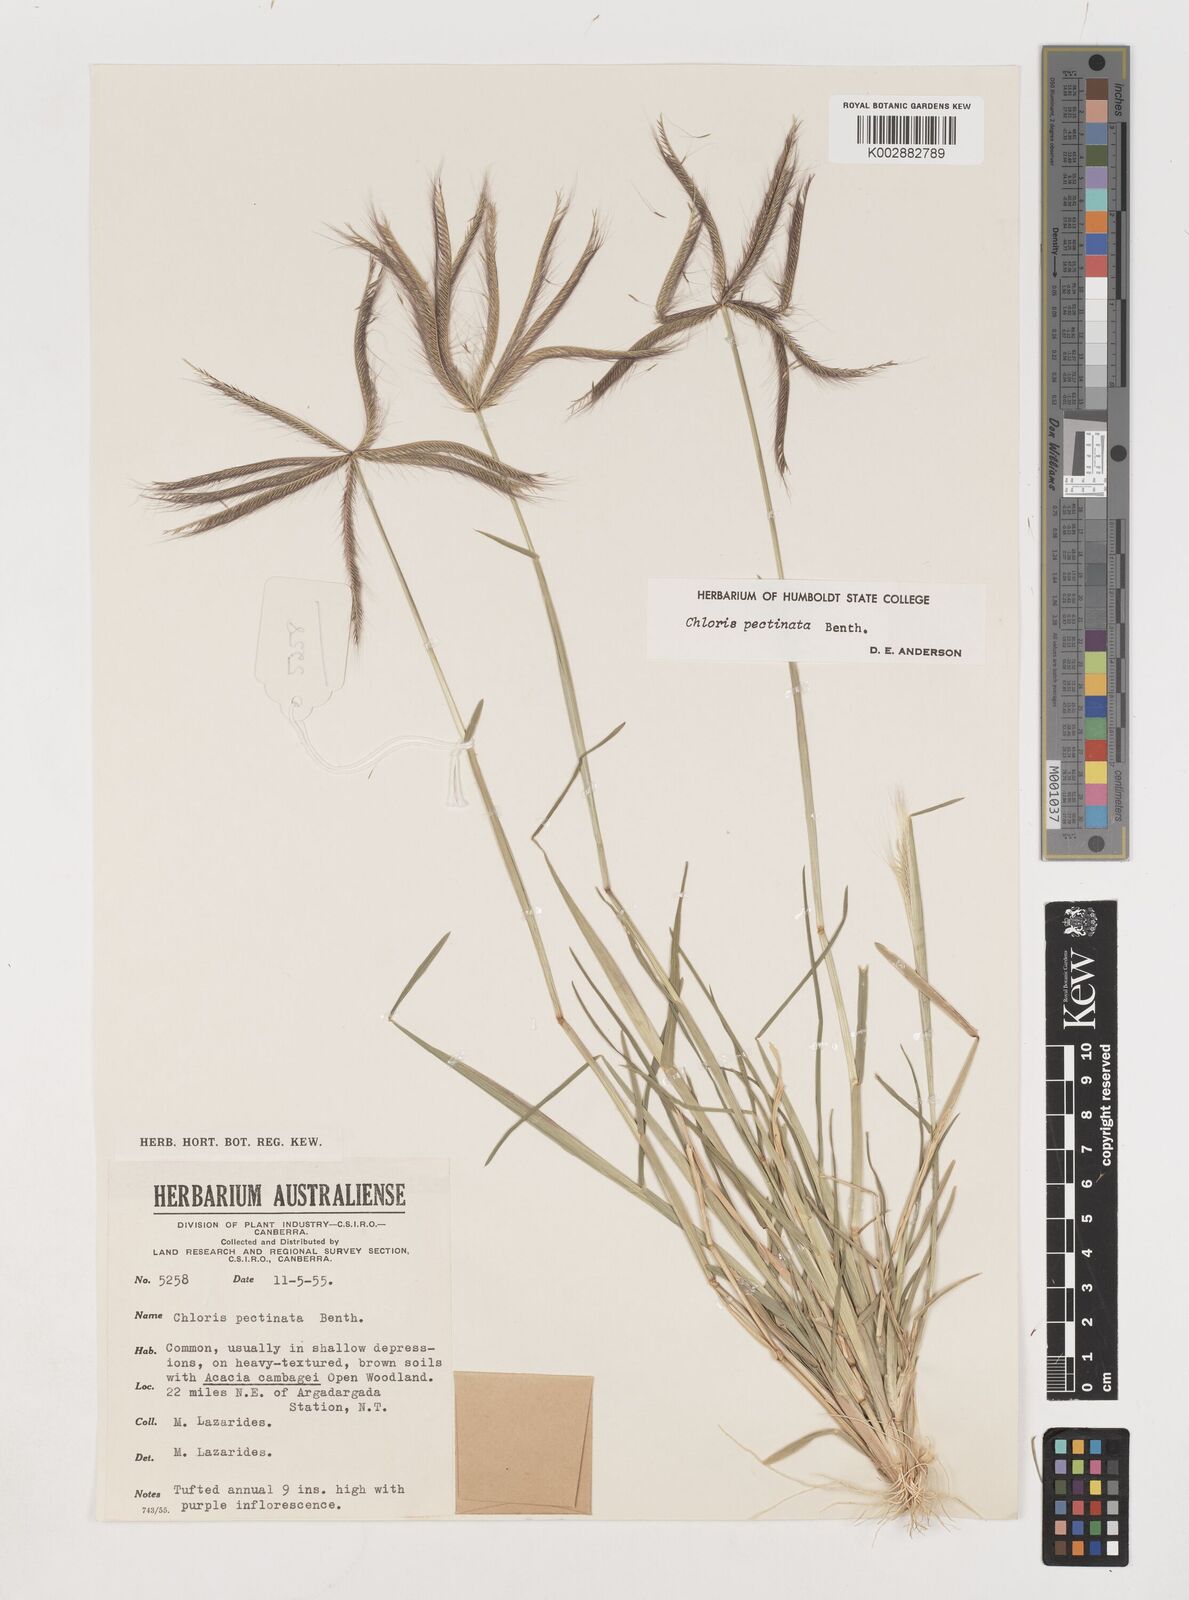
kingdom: Plantae
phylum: Tracheophyta
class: Liliopsida
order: Poales
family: Poaceae
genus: Chloris
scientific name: Chloris pectinata
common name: Comb windmill grass
